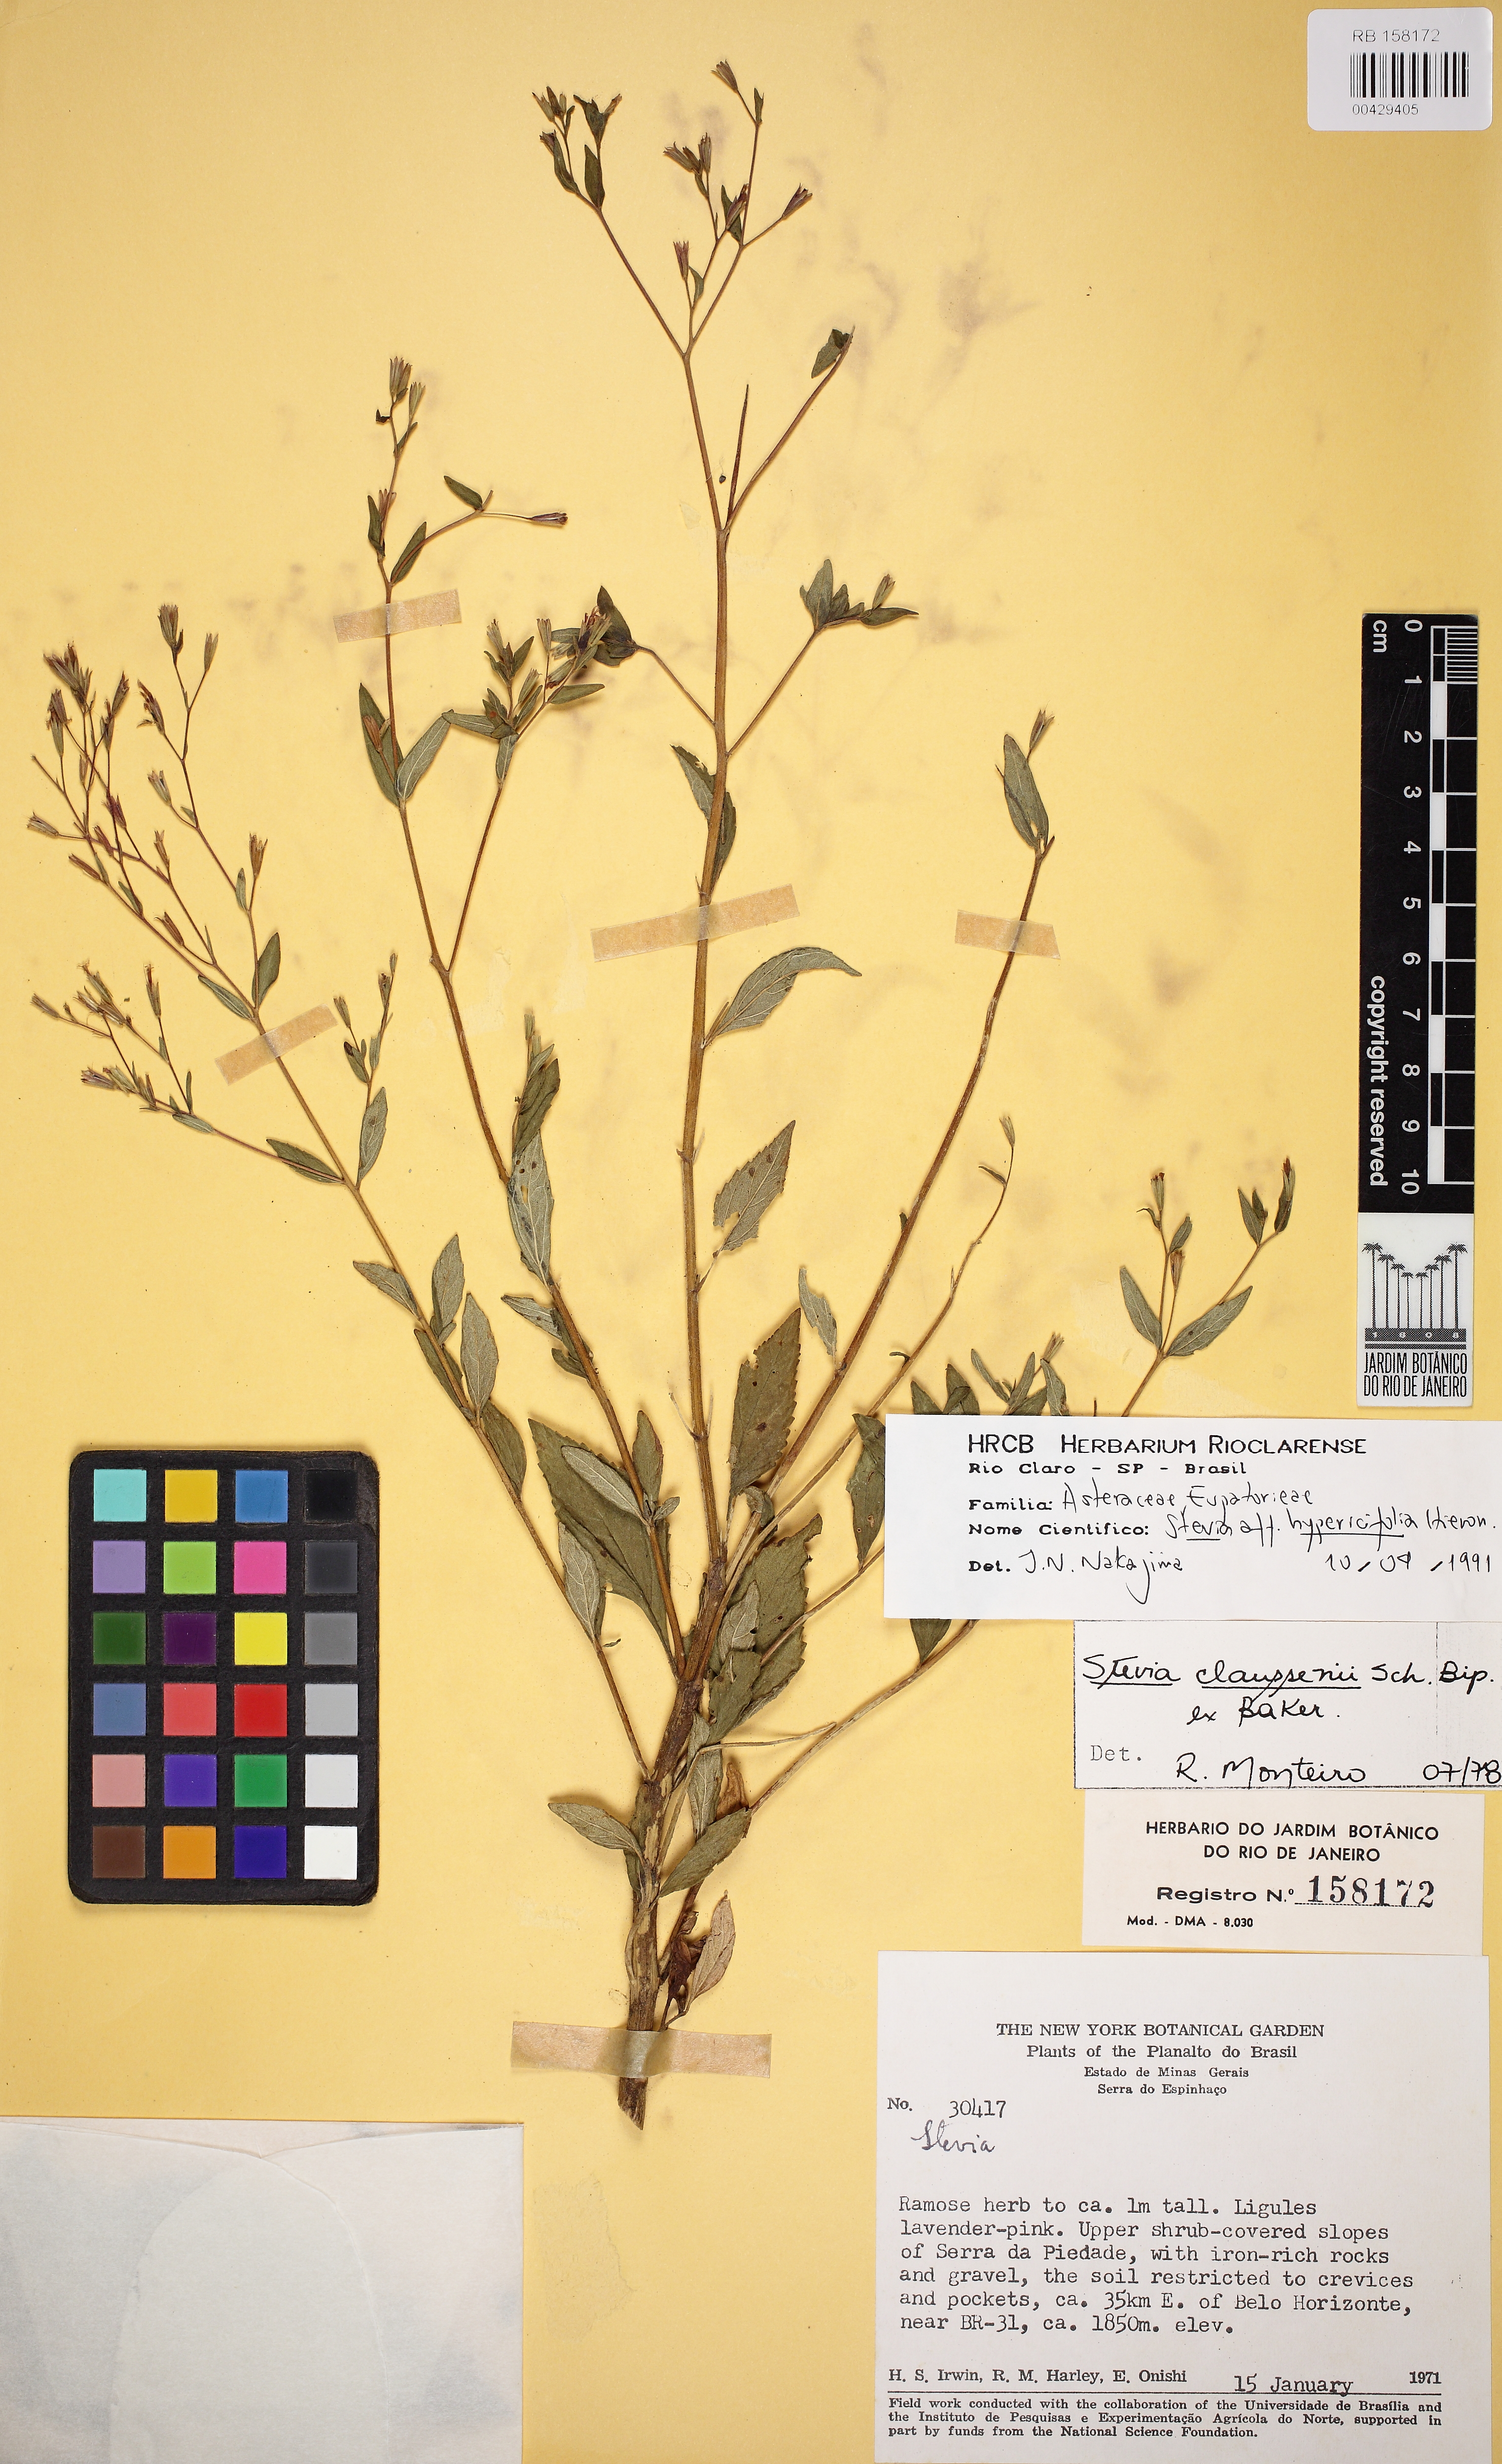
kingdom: Plantae
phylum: Tracheophyta
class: Magnoliopsida
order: Asterales
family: Asteraceae
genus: Stevia
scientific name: Stevia decussata
